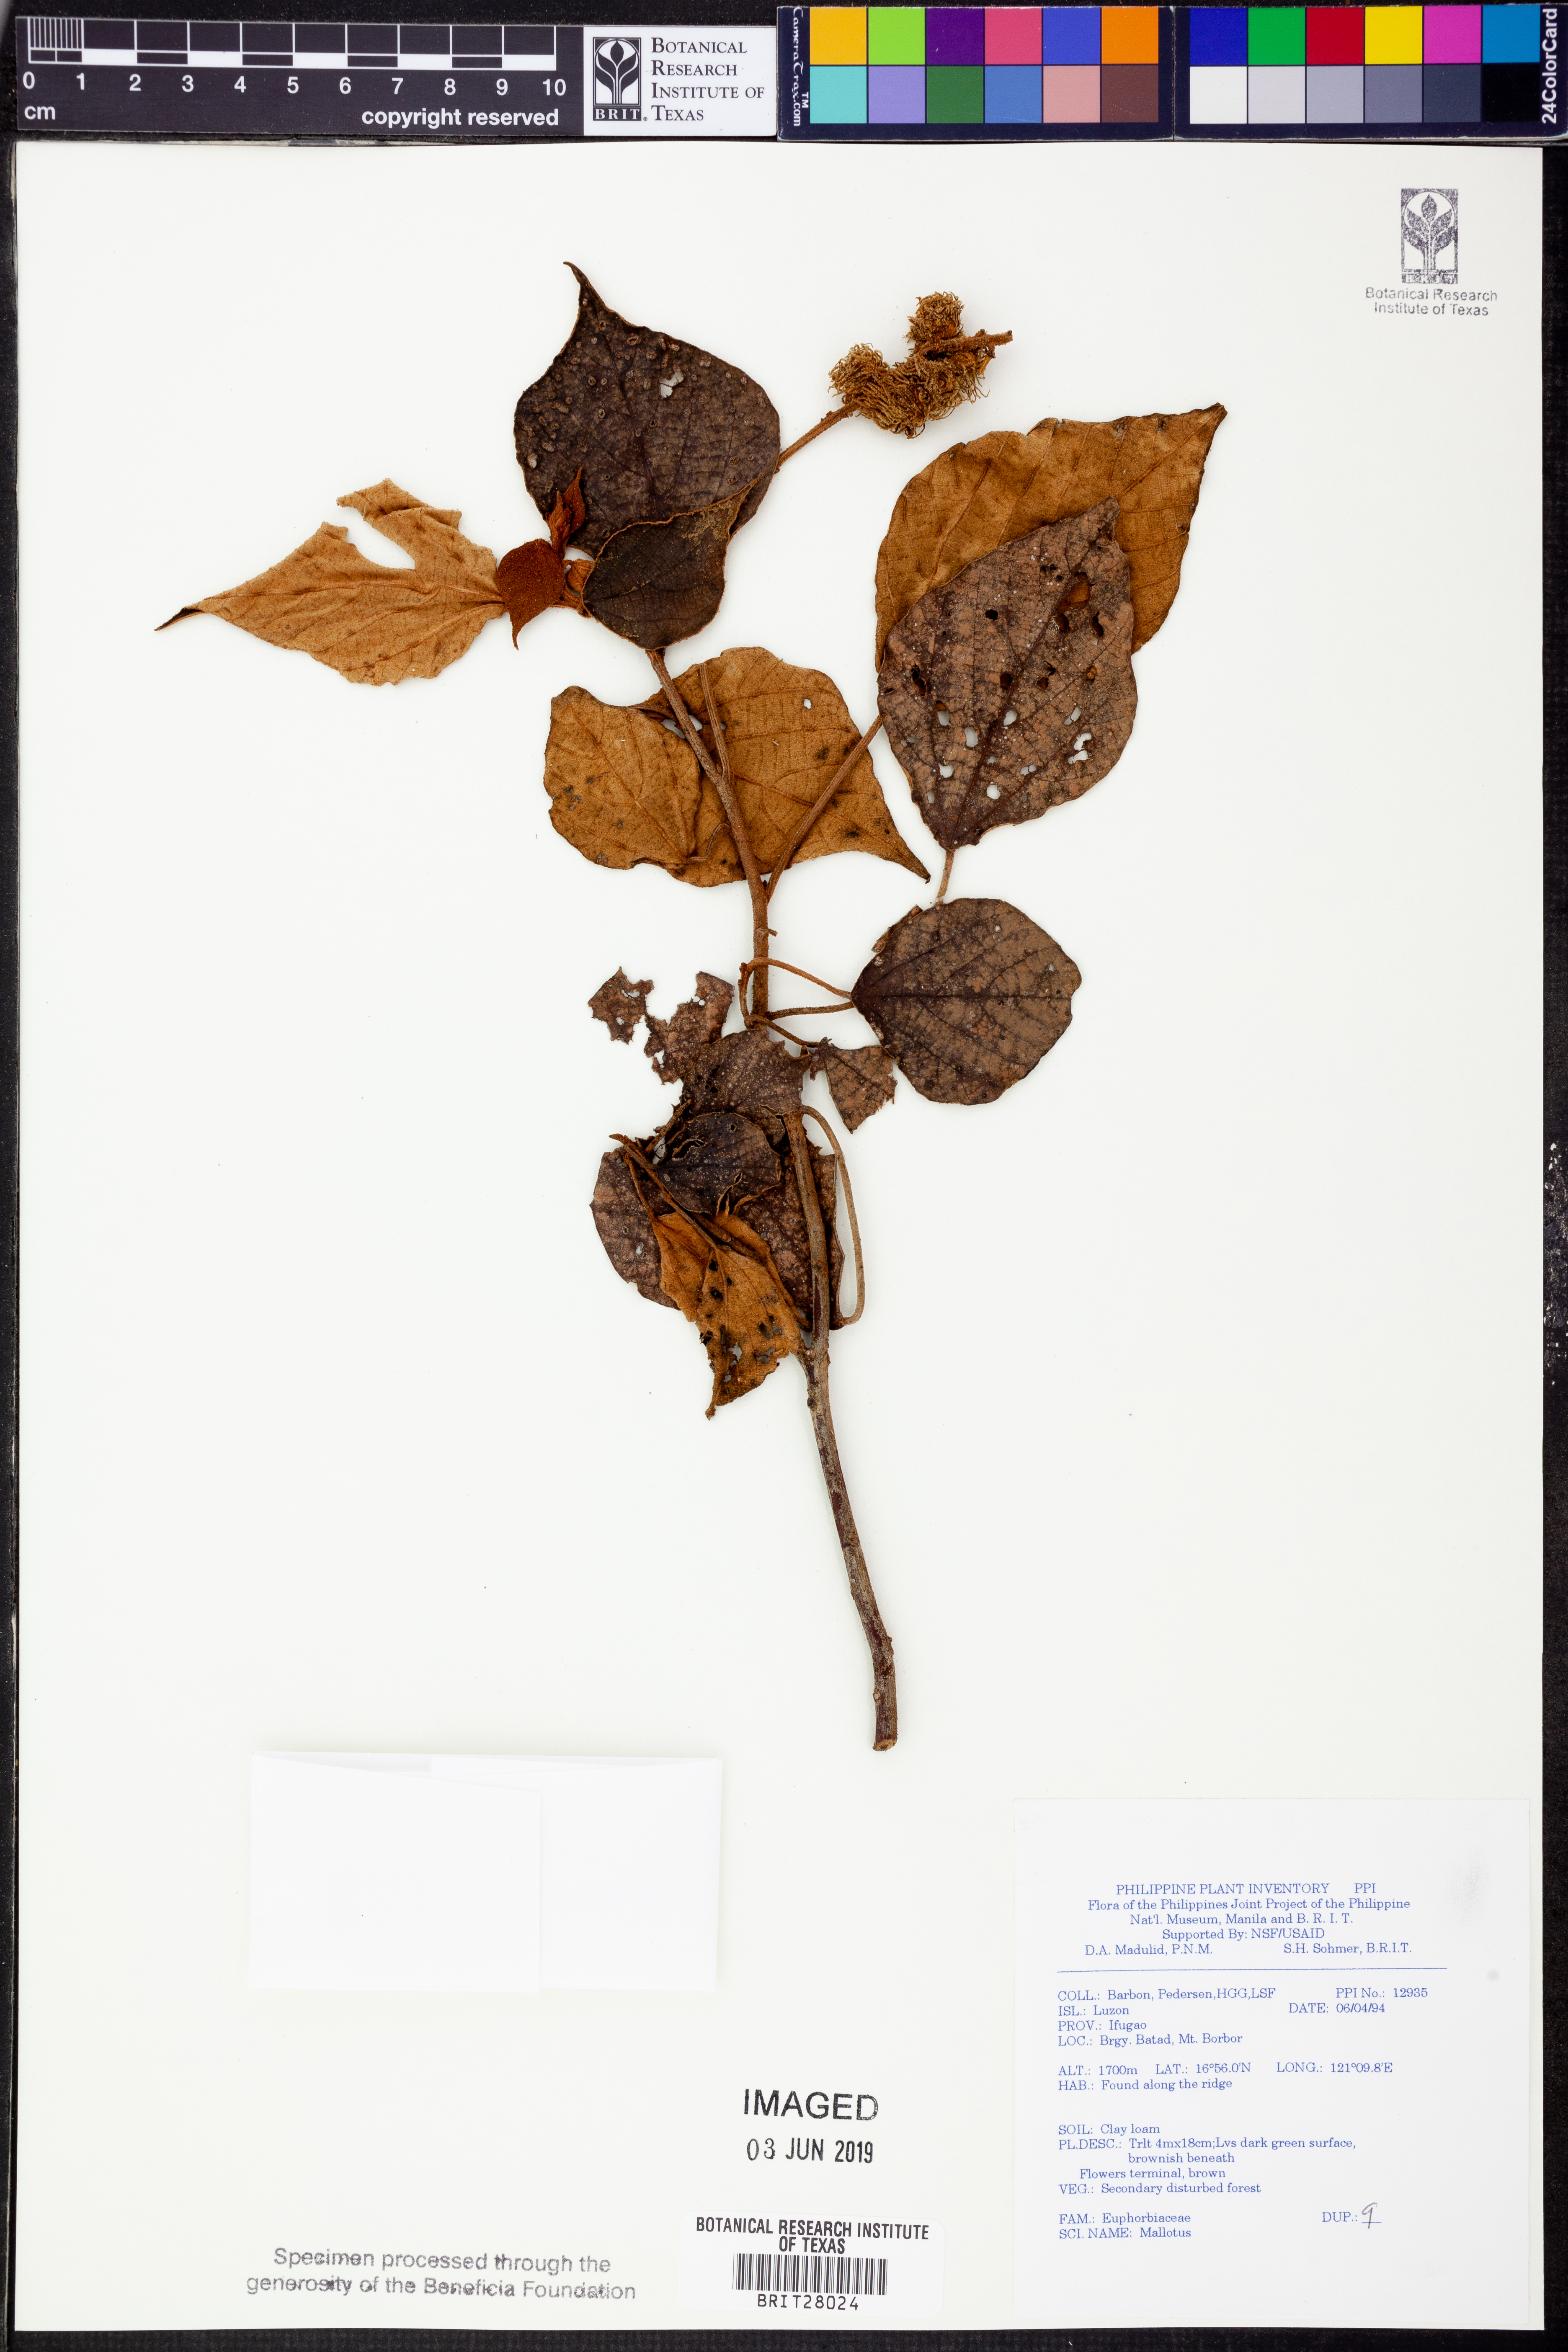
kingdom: Plantae
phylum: Tracheophyta
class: Magnoliopsida
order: Malpighiales
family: Euphorbiaceae
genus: Mallotus
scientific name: Mallotus
